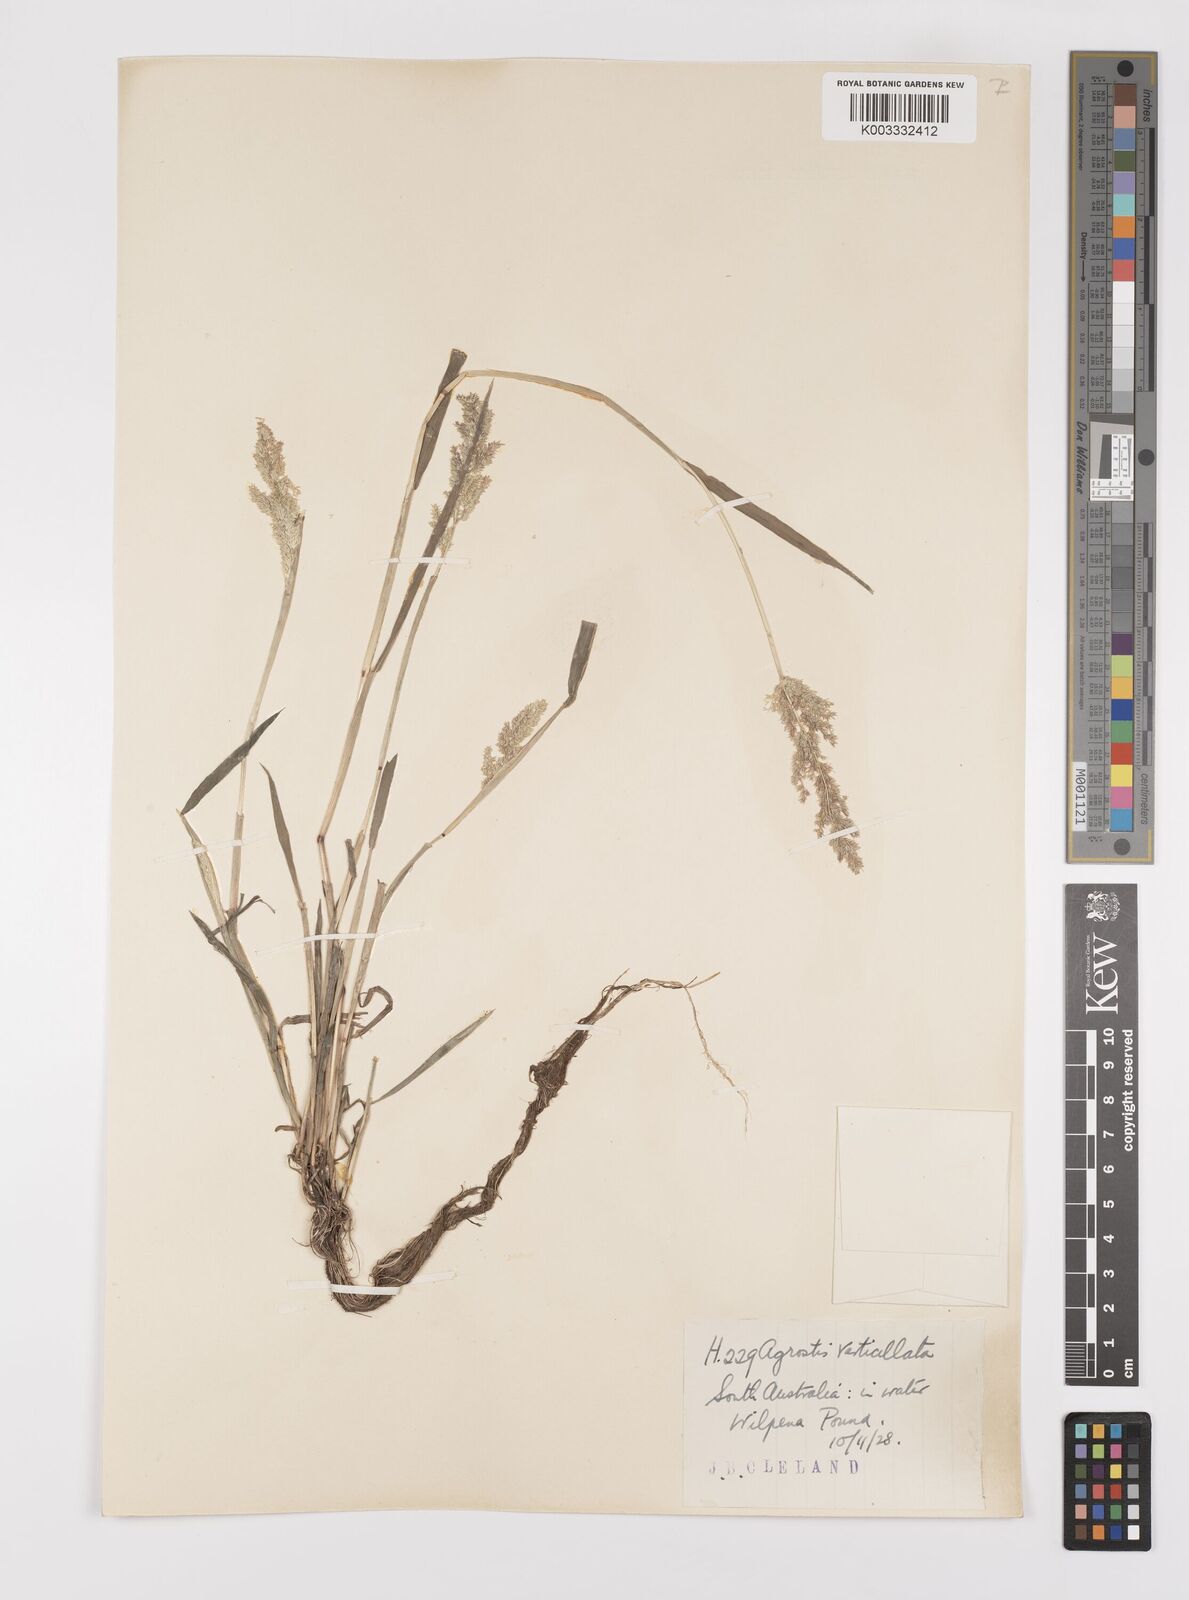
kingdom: Plantae
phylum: Tracheophyta
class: Liliopsida
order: Poales
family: Poaceae
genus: Polypogon
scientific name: Polypogon viridis
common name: Water bent
